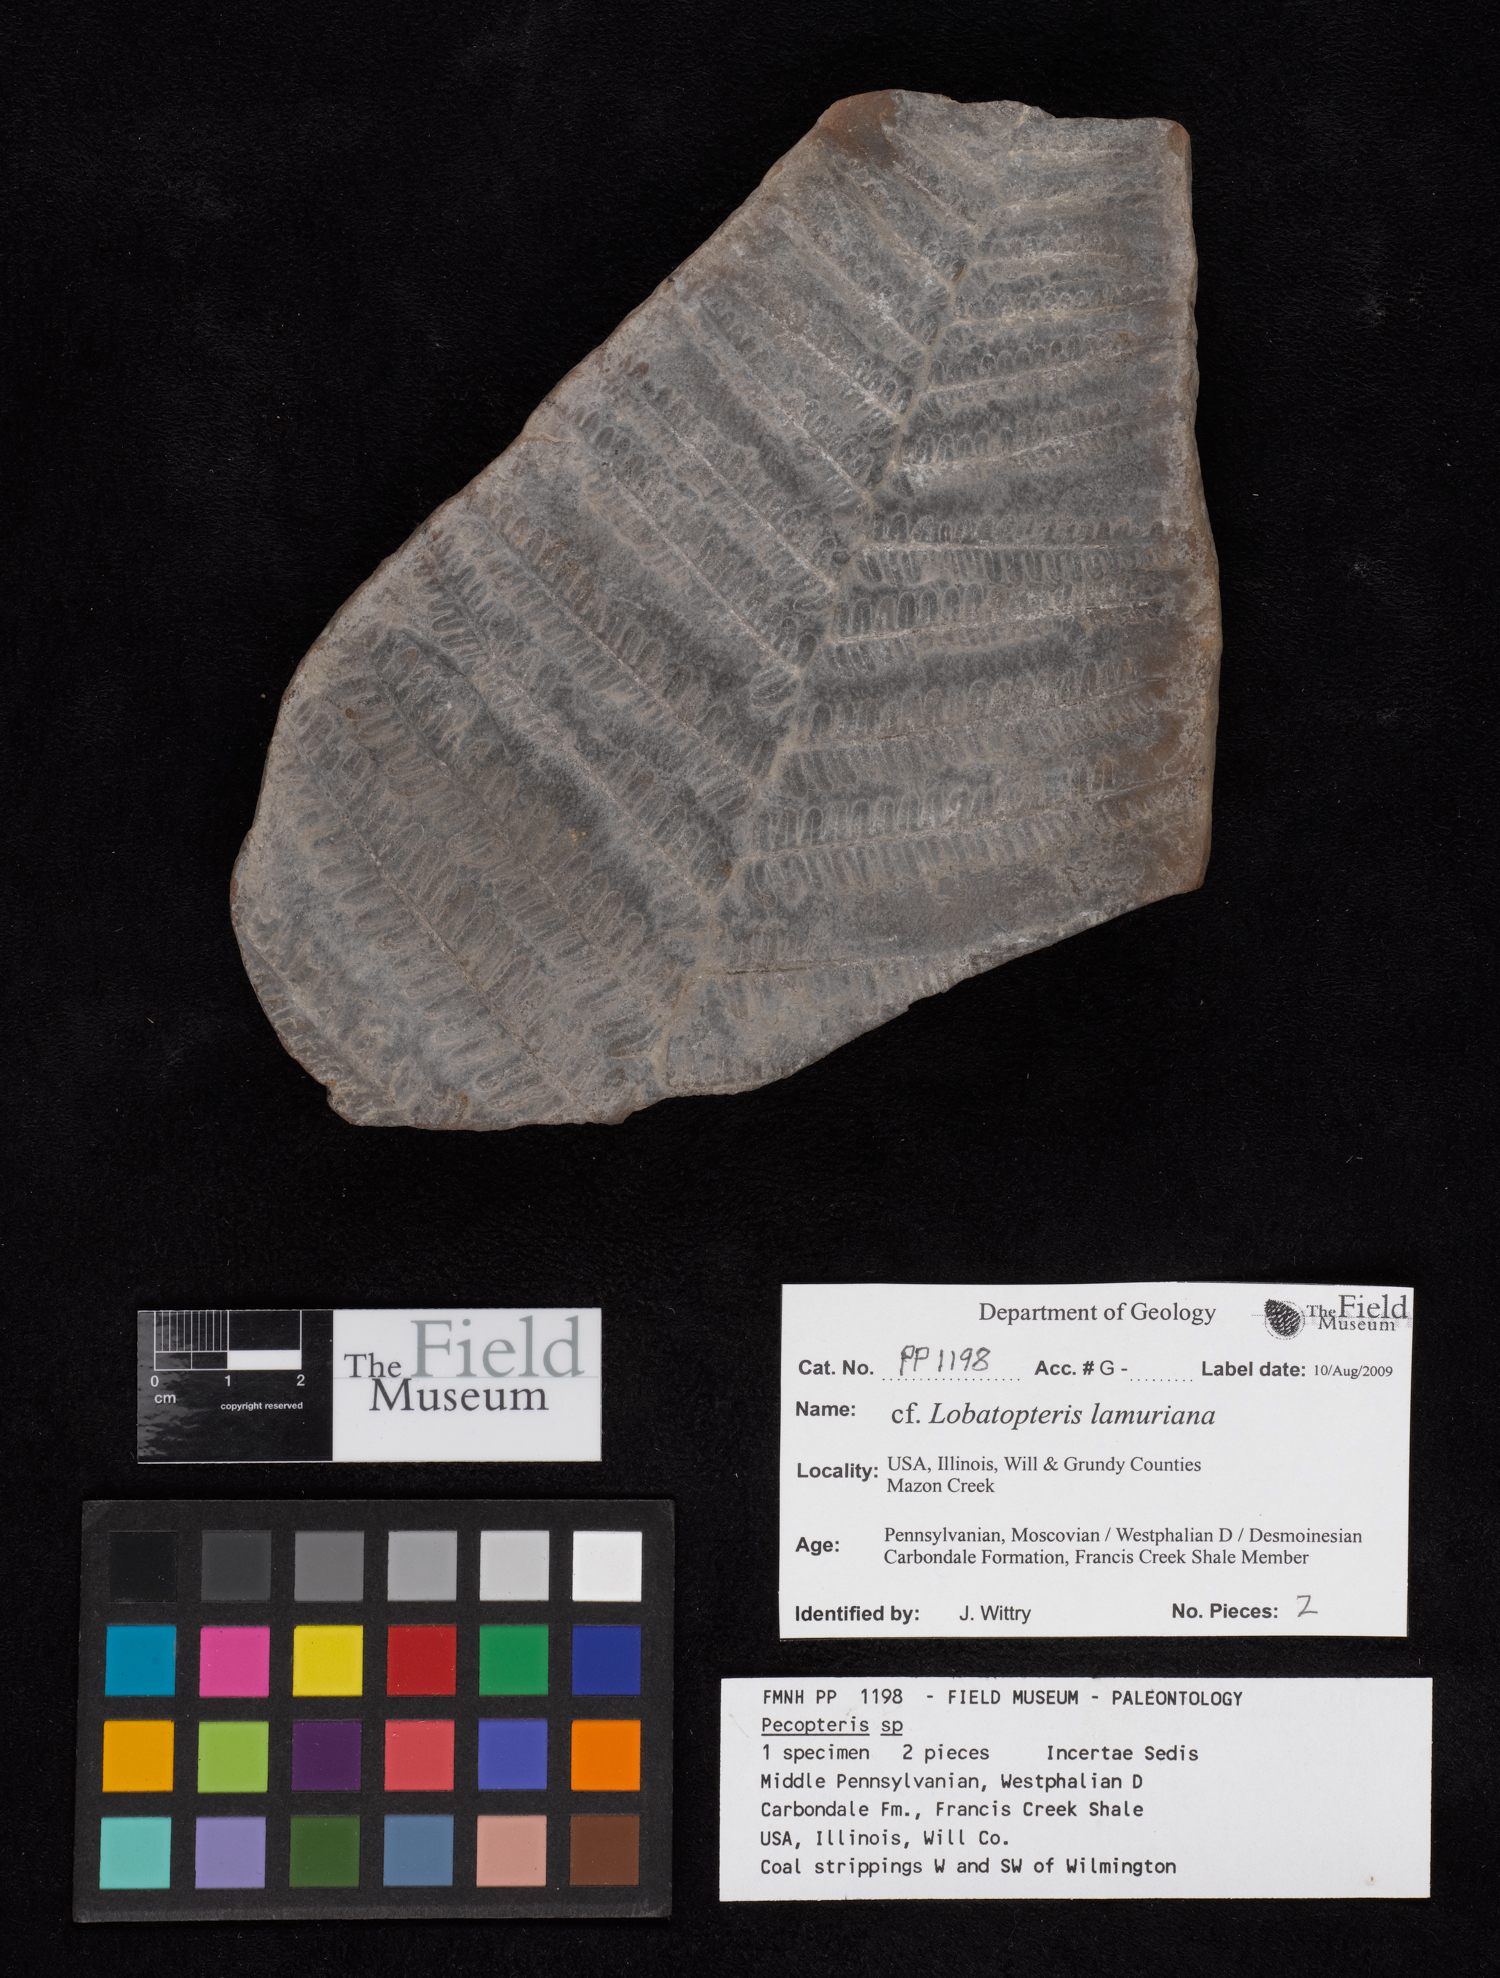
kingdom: Plantae
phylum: Tracheophyta
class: Polypodiopsida
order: Marattiales
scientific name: Marattiales
